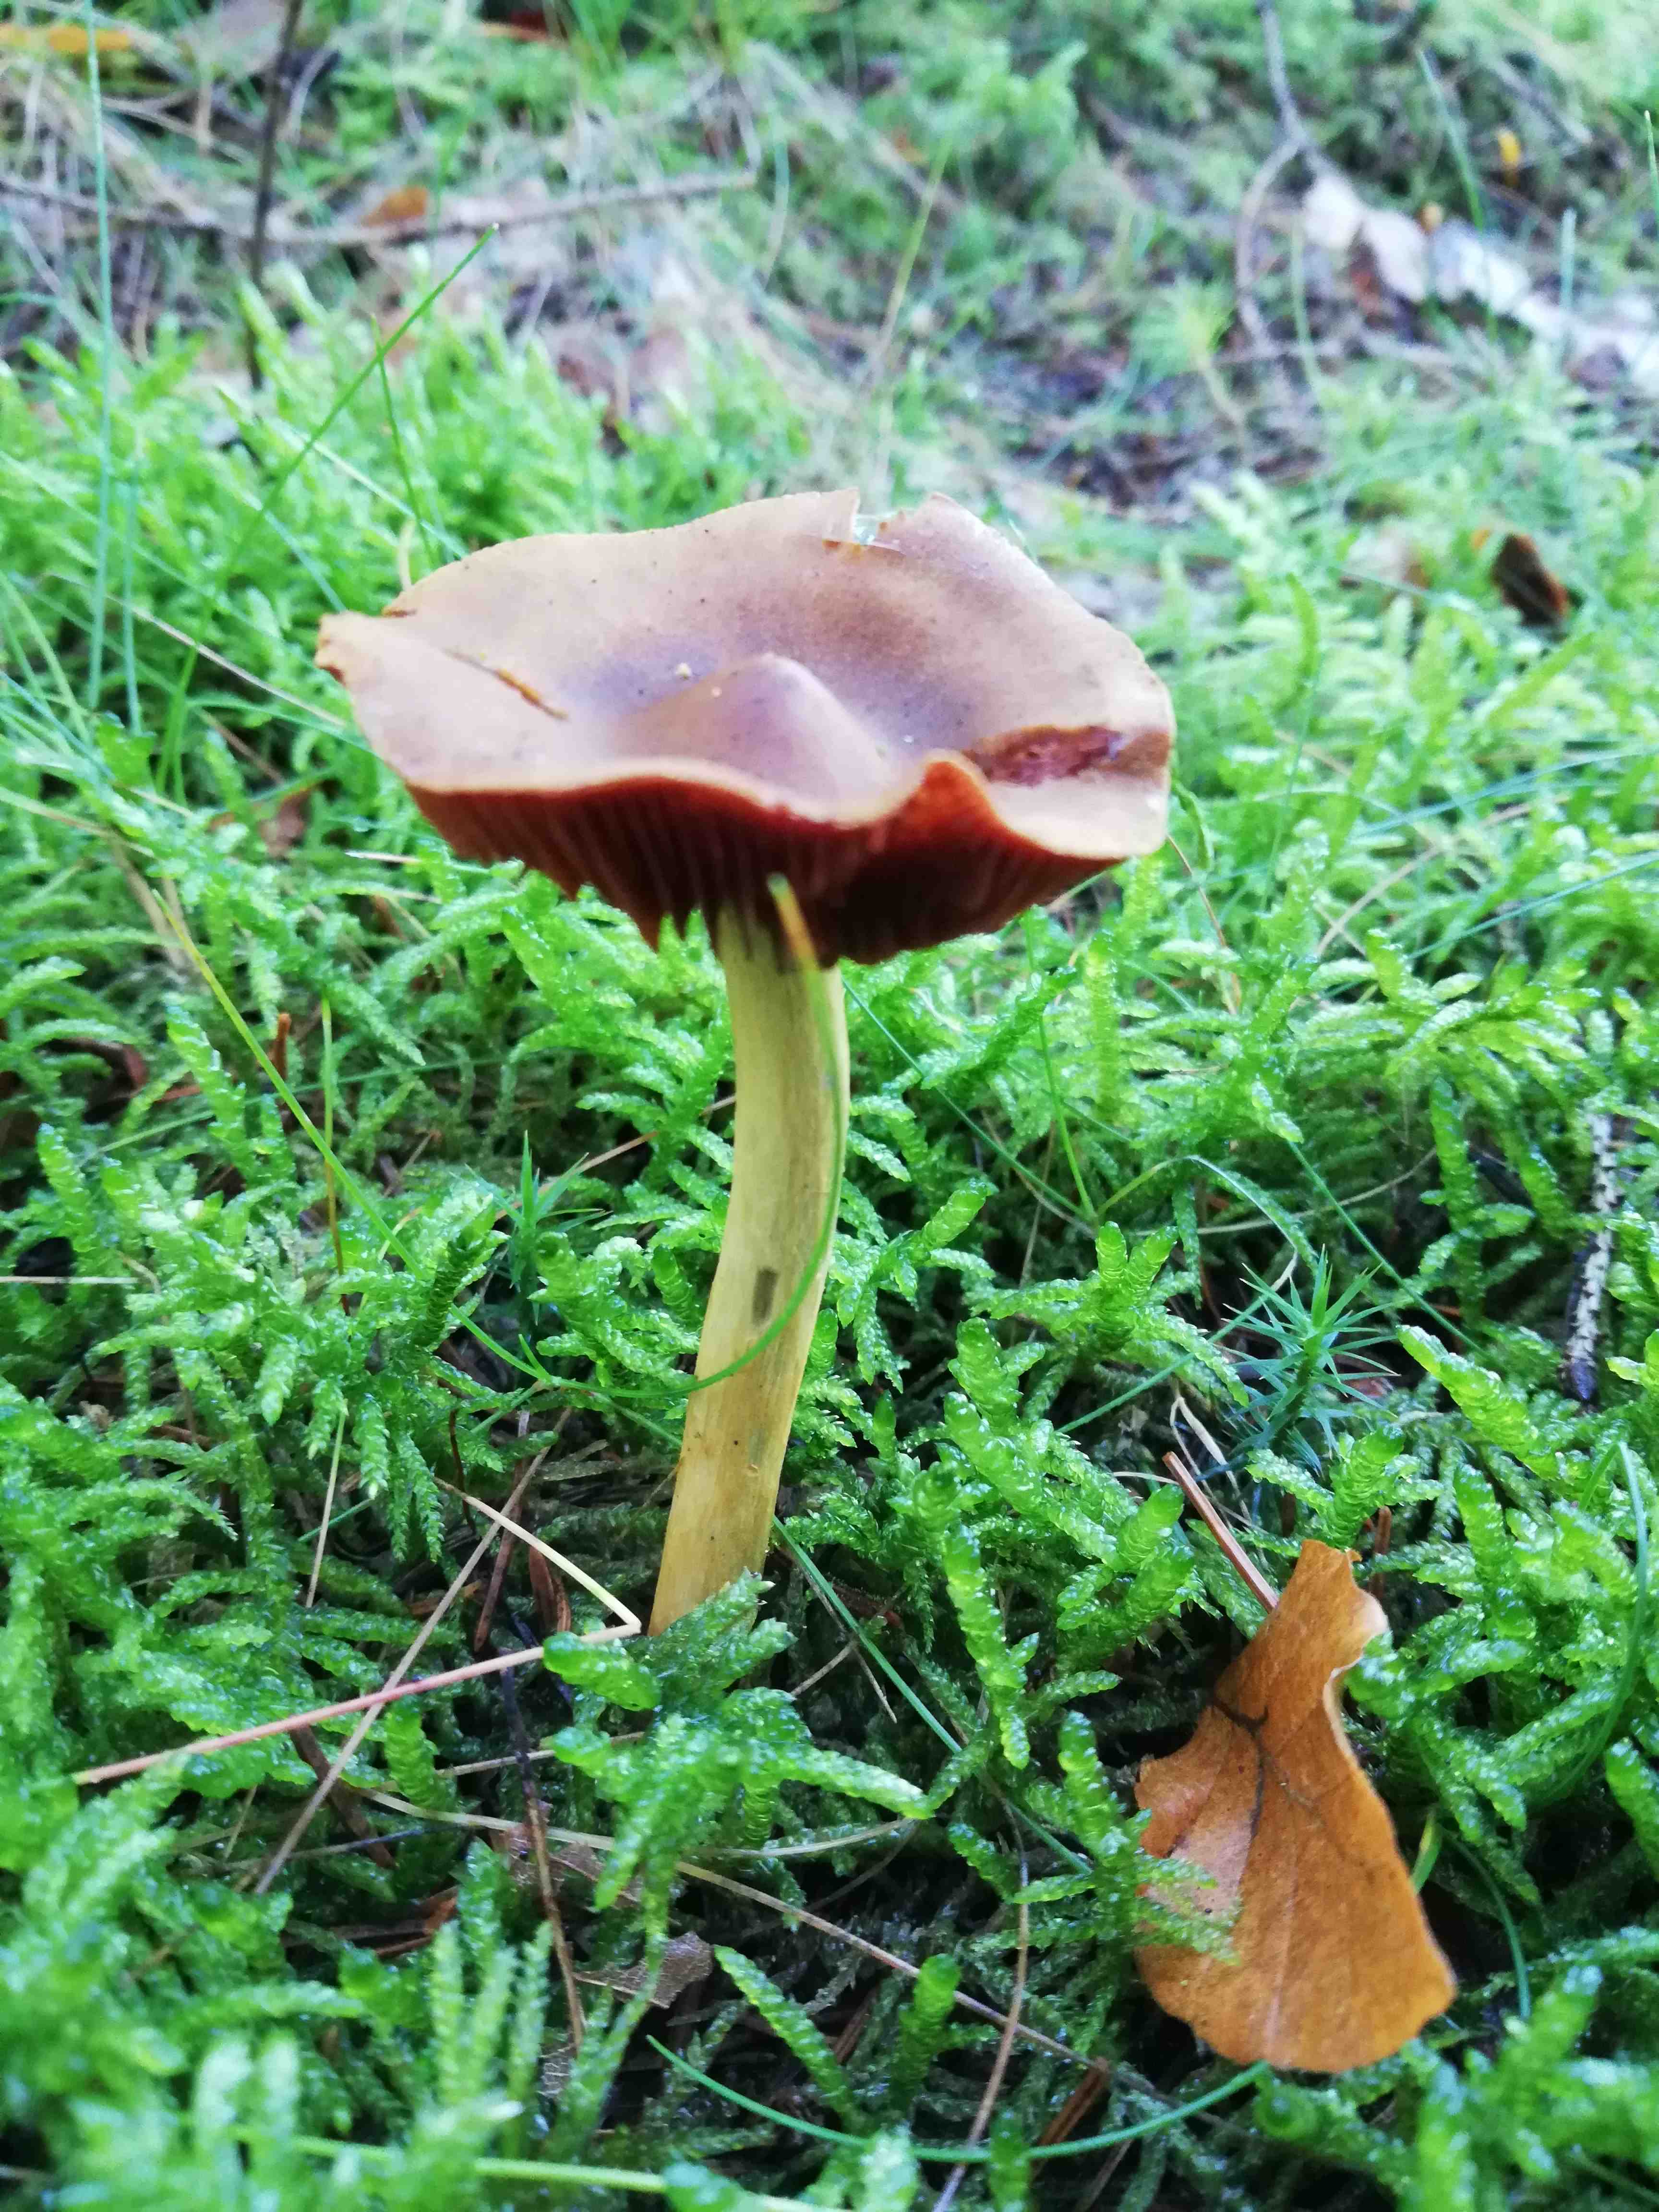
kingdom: Fungi
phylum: Basidiomycota
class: Agaricomycetes
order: Agaricales
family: Cortinariaceae
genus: Cortinarius
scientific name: Cortinarius
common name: cinnoberbladet slørhat
